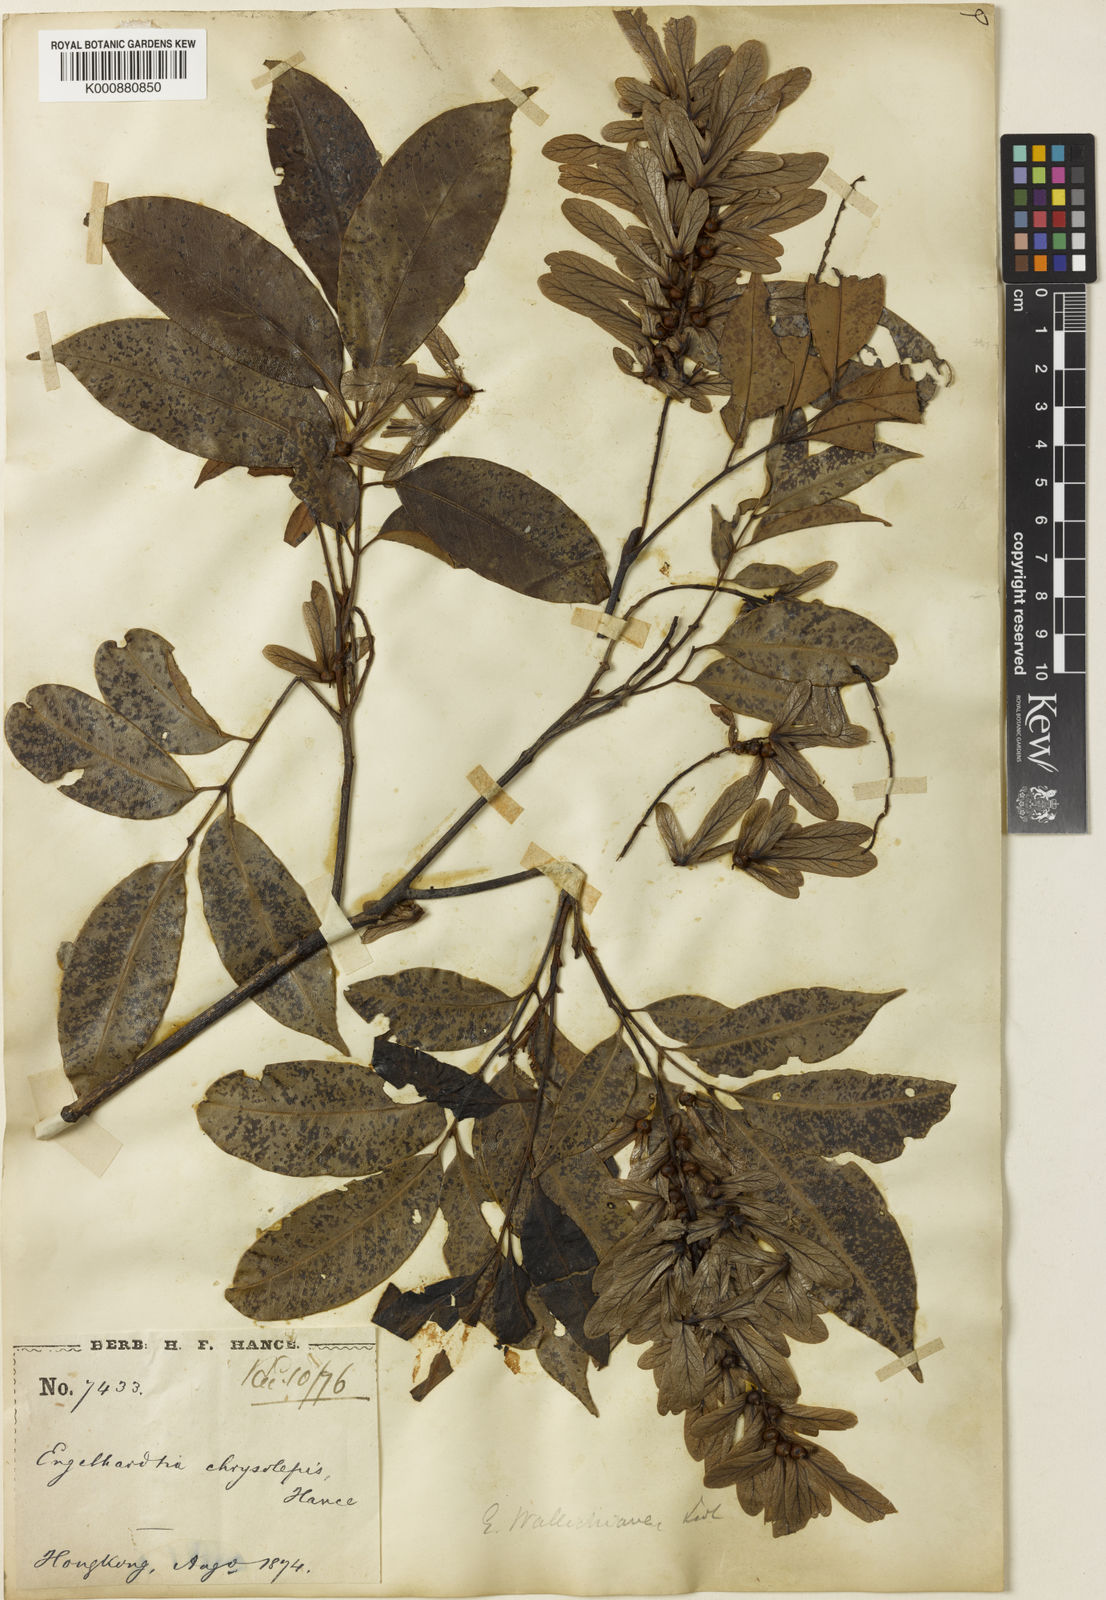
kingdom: Plantae
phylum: Tracheophyta
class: Magnoliopsida
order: Fagales
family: Juglandaceae
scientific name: Juglandaceae
